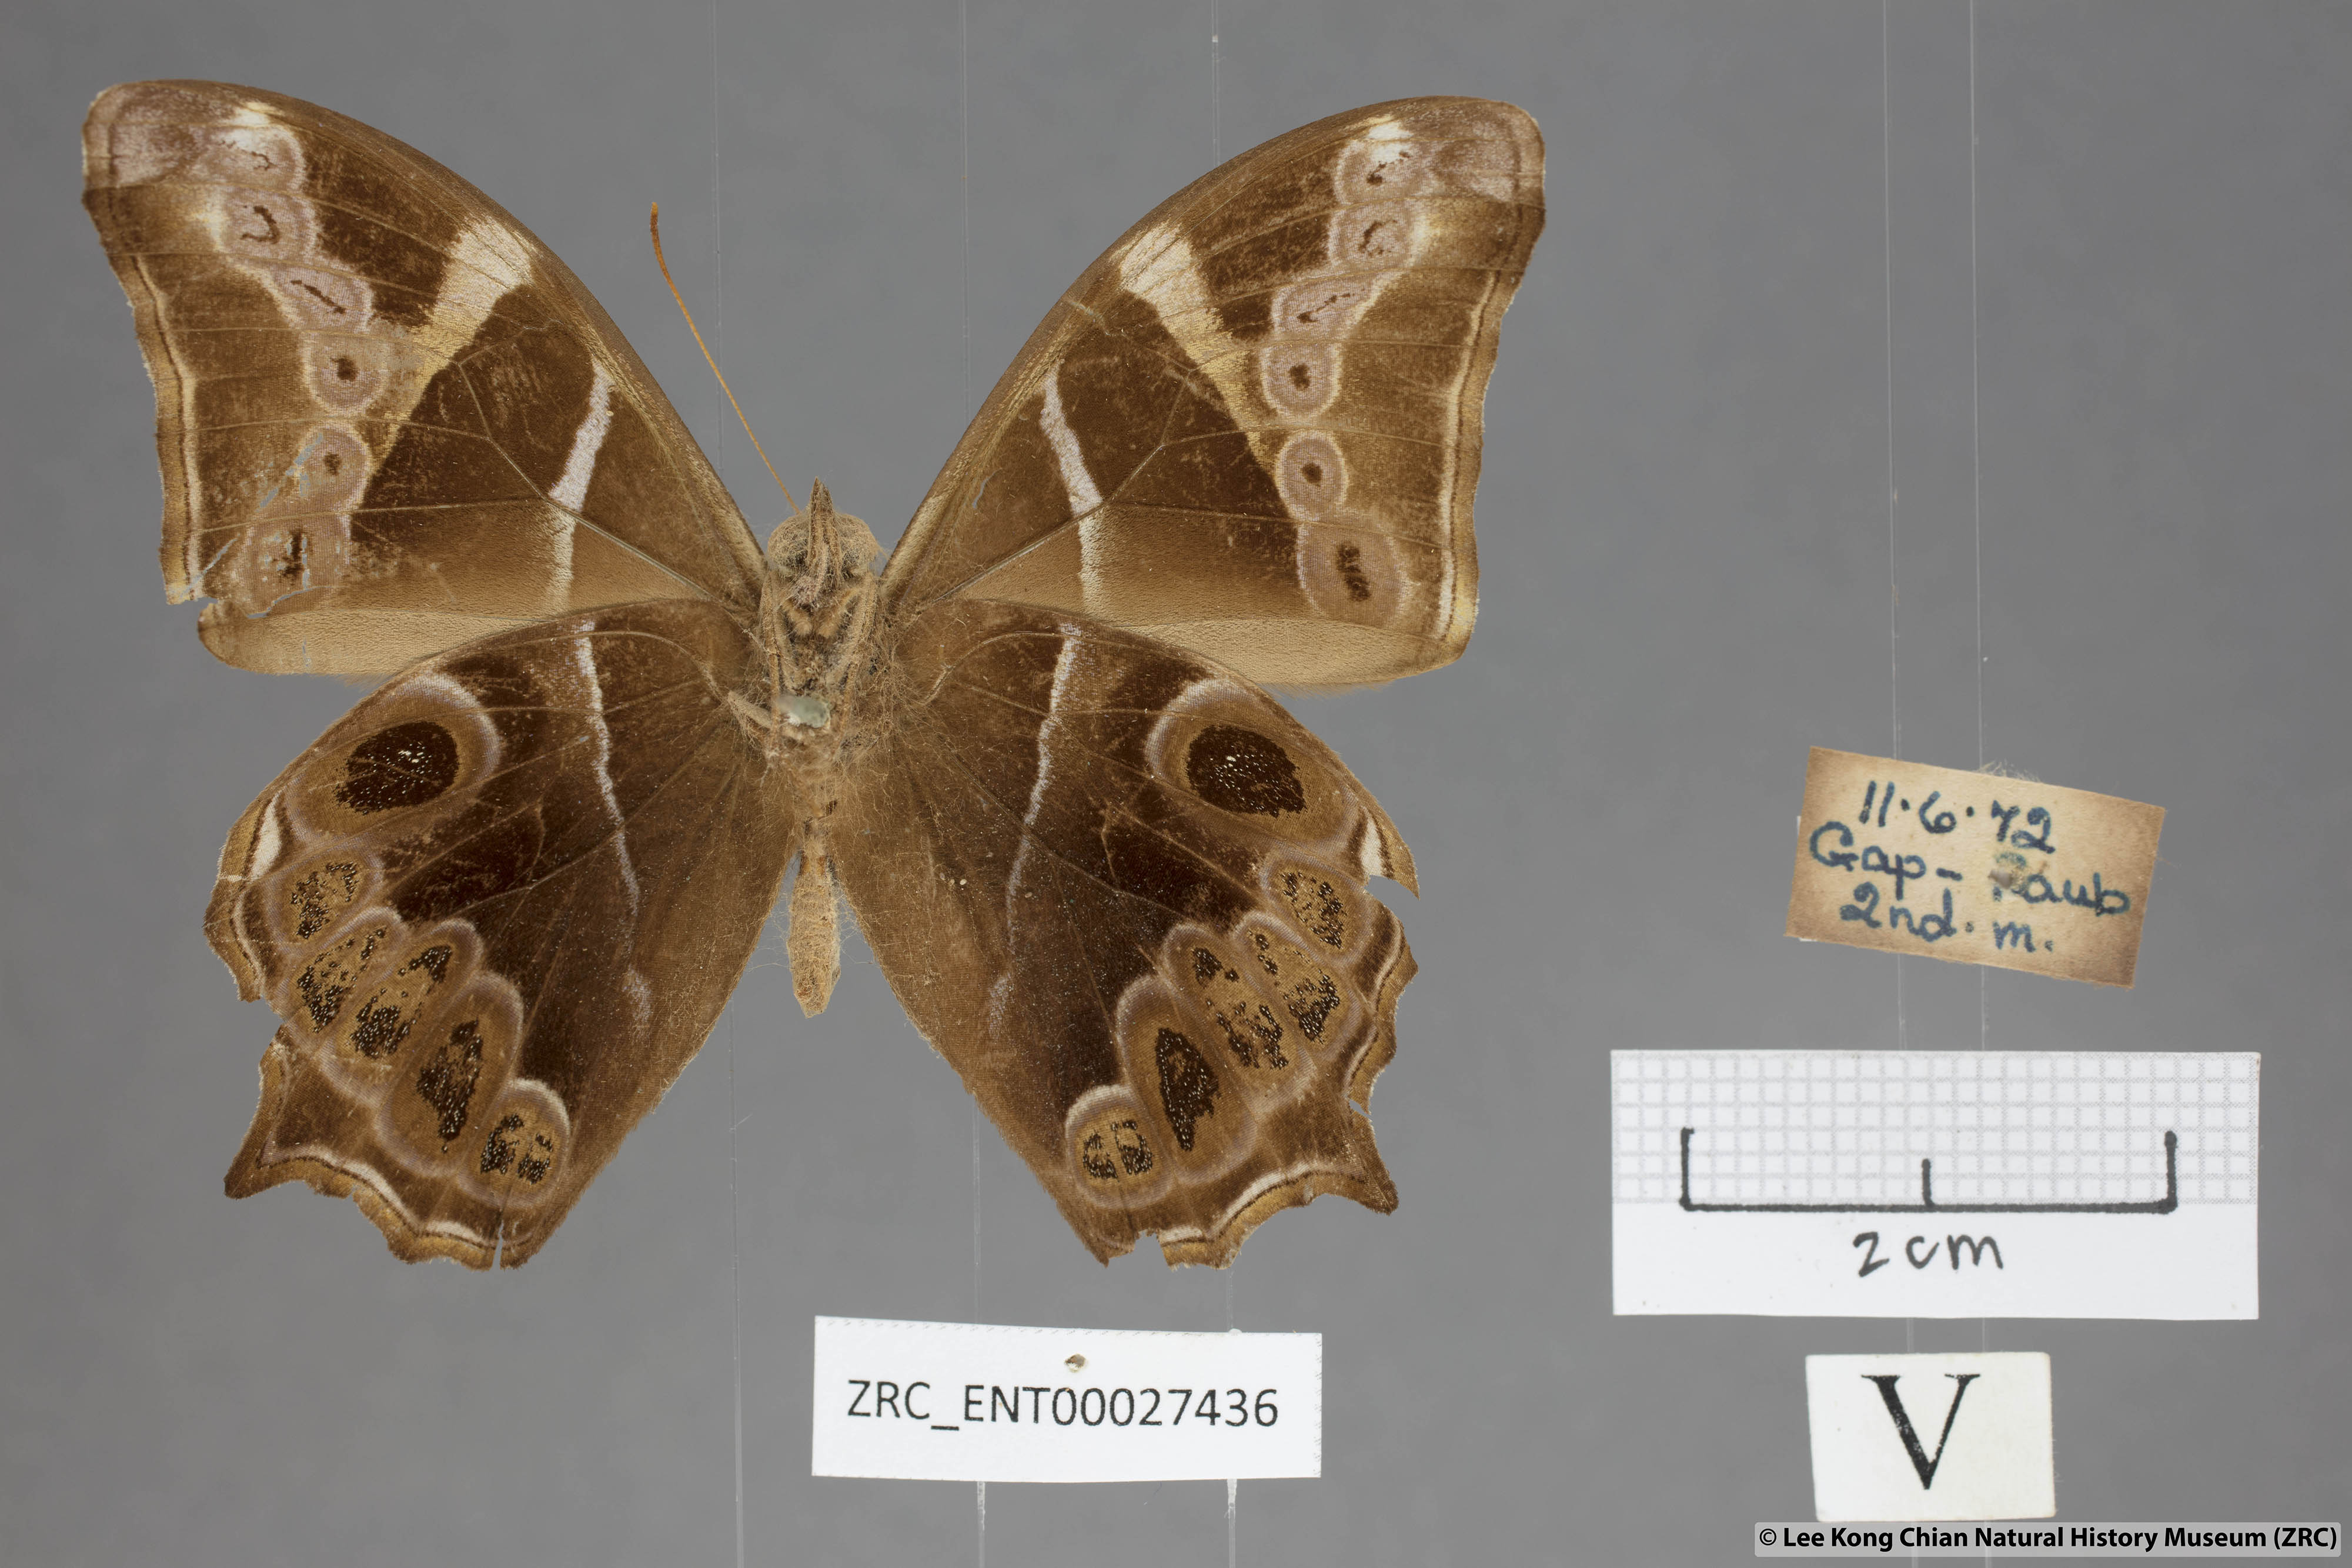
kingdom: Animalia
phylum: Arthropoda
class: Insecta
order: Lepidoptera
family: Nymphalidae
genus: Lethe
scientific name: Lethe europa
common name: Bamboo treebrown
